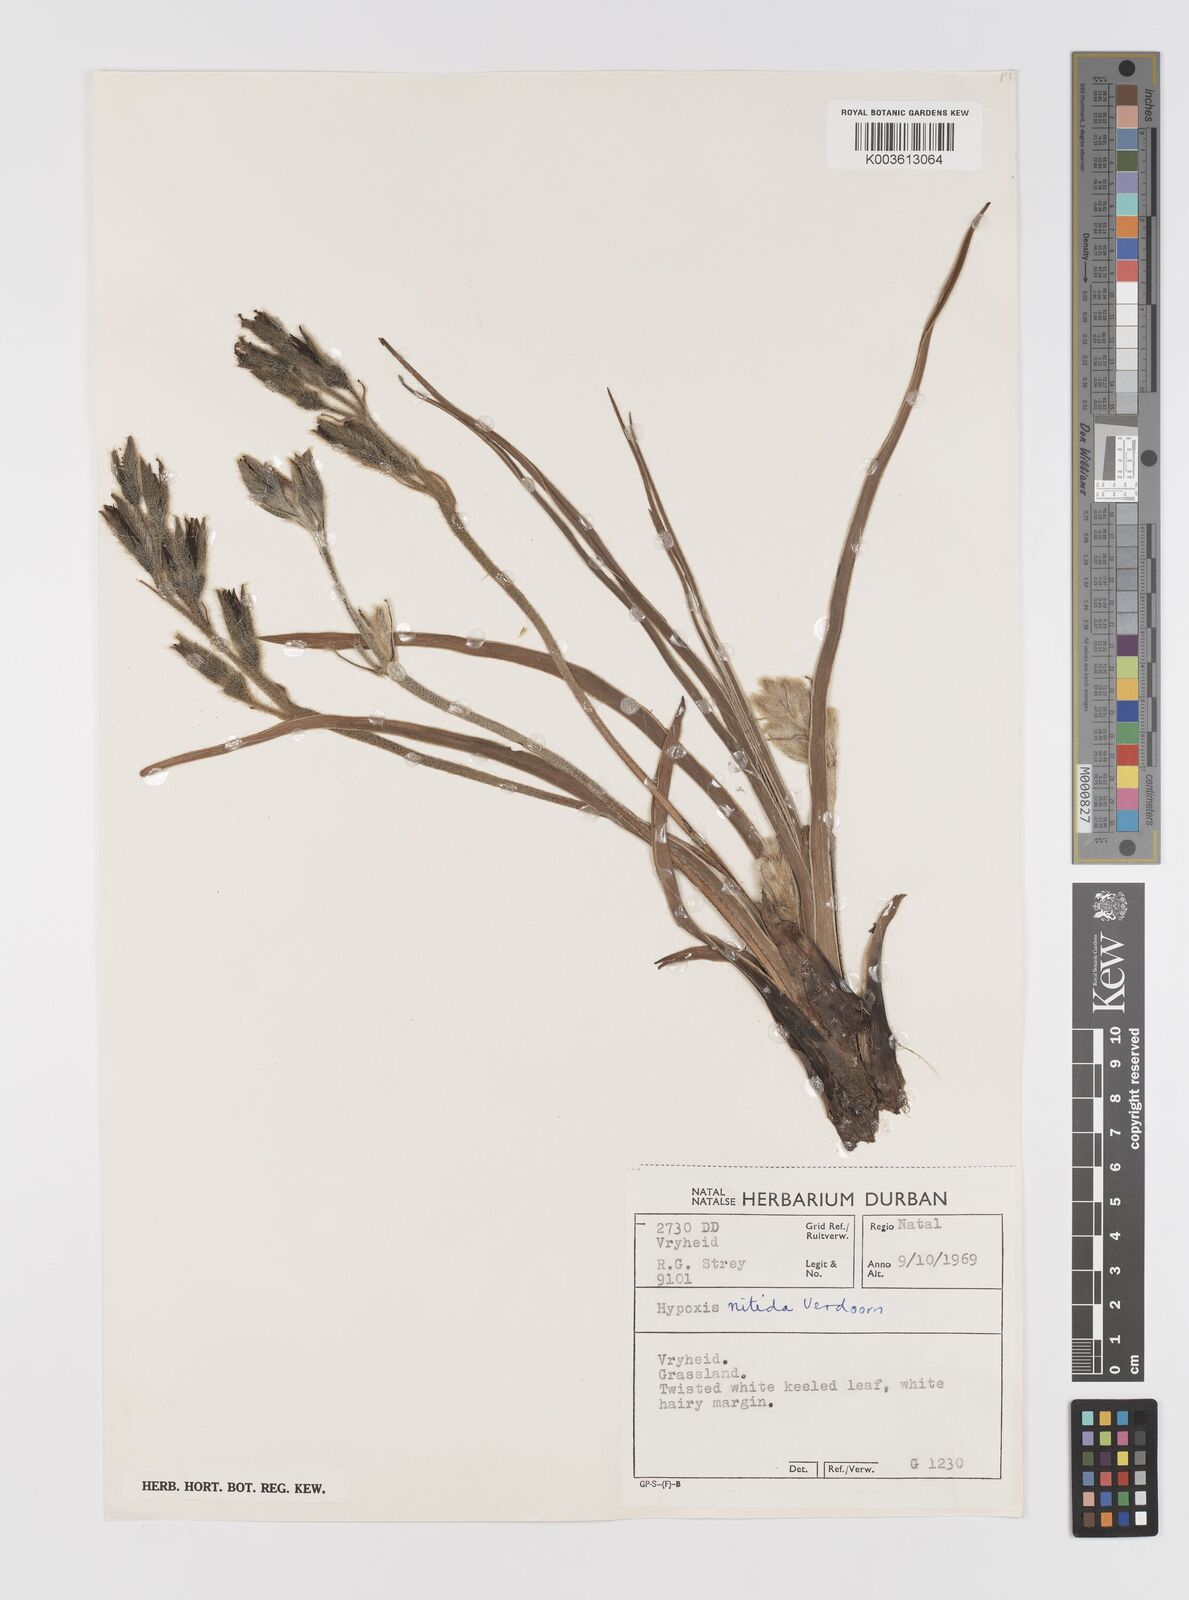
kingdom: Plantae
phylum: Tracheophyta
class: Liliopsida
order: Asparagales
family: Hypoxidaceae
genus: Hypoxis
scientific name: Hypoxis obtusa
